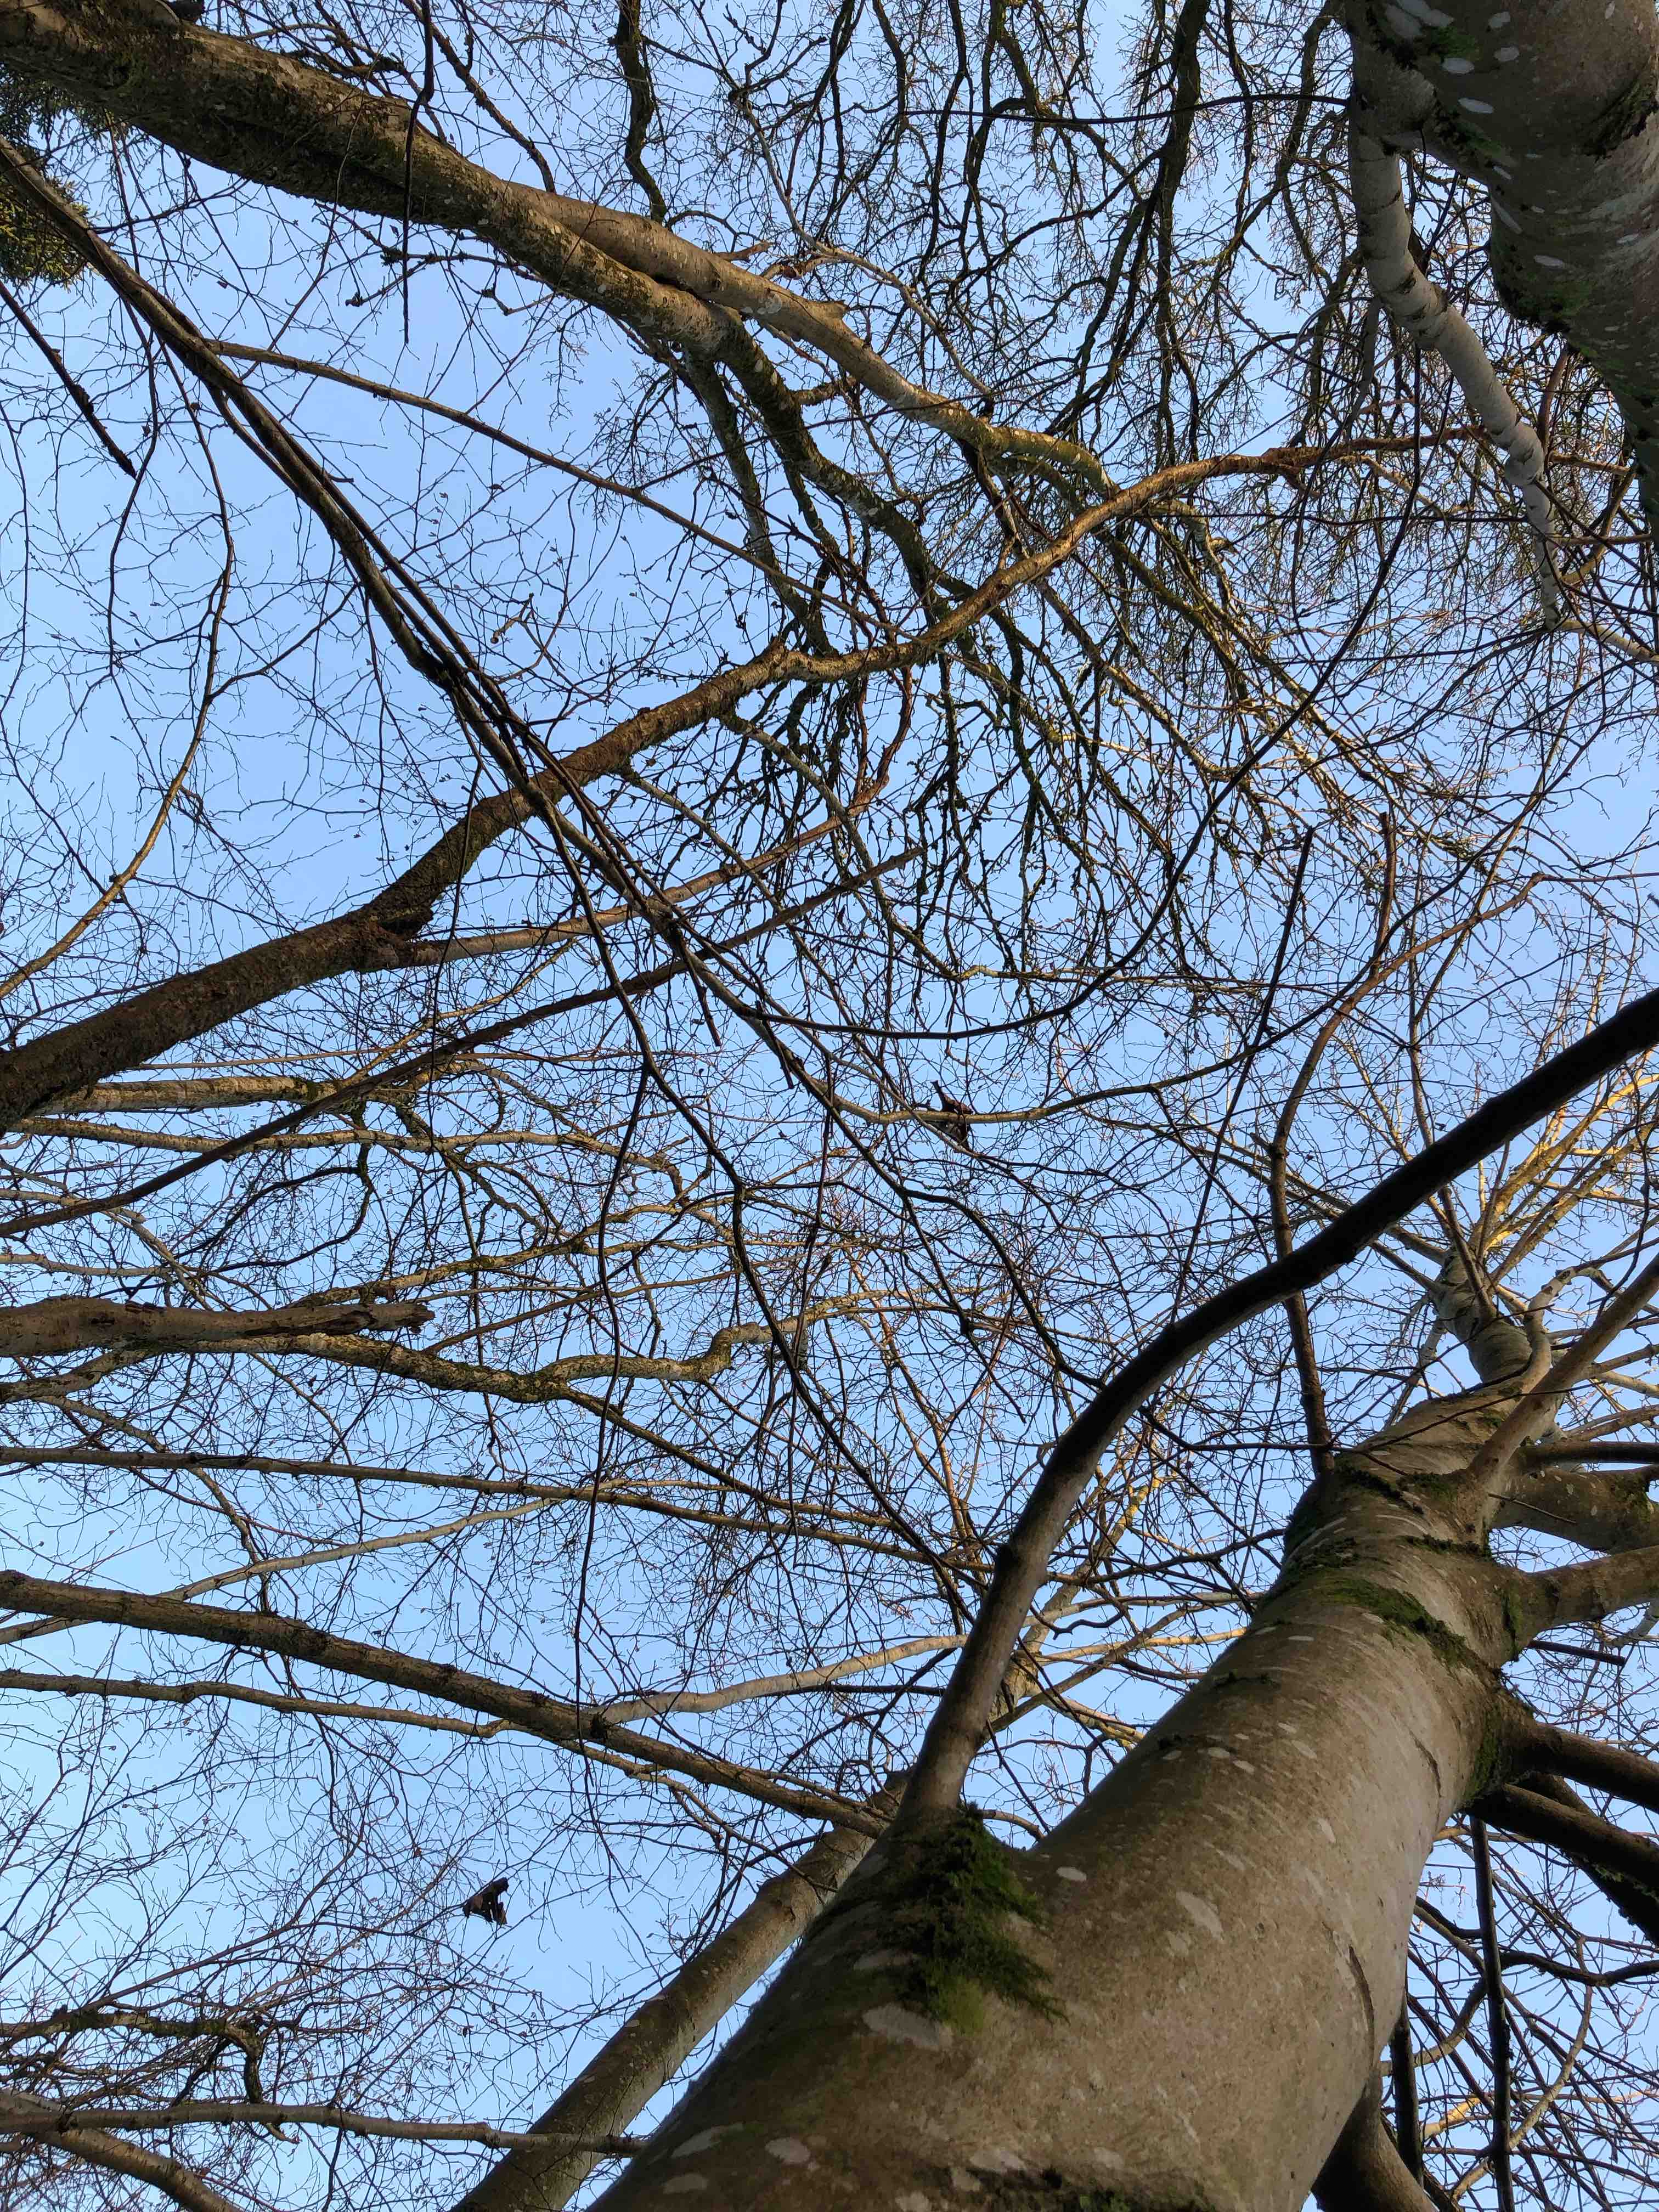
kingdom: Fungi
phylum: Basidiomycota
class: Tremellomycetes
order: Tremellales
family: Exidiaceae
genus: Exidiopsis
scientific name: Exidiopsis effusa
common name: smuk bævrehinde
